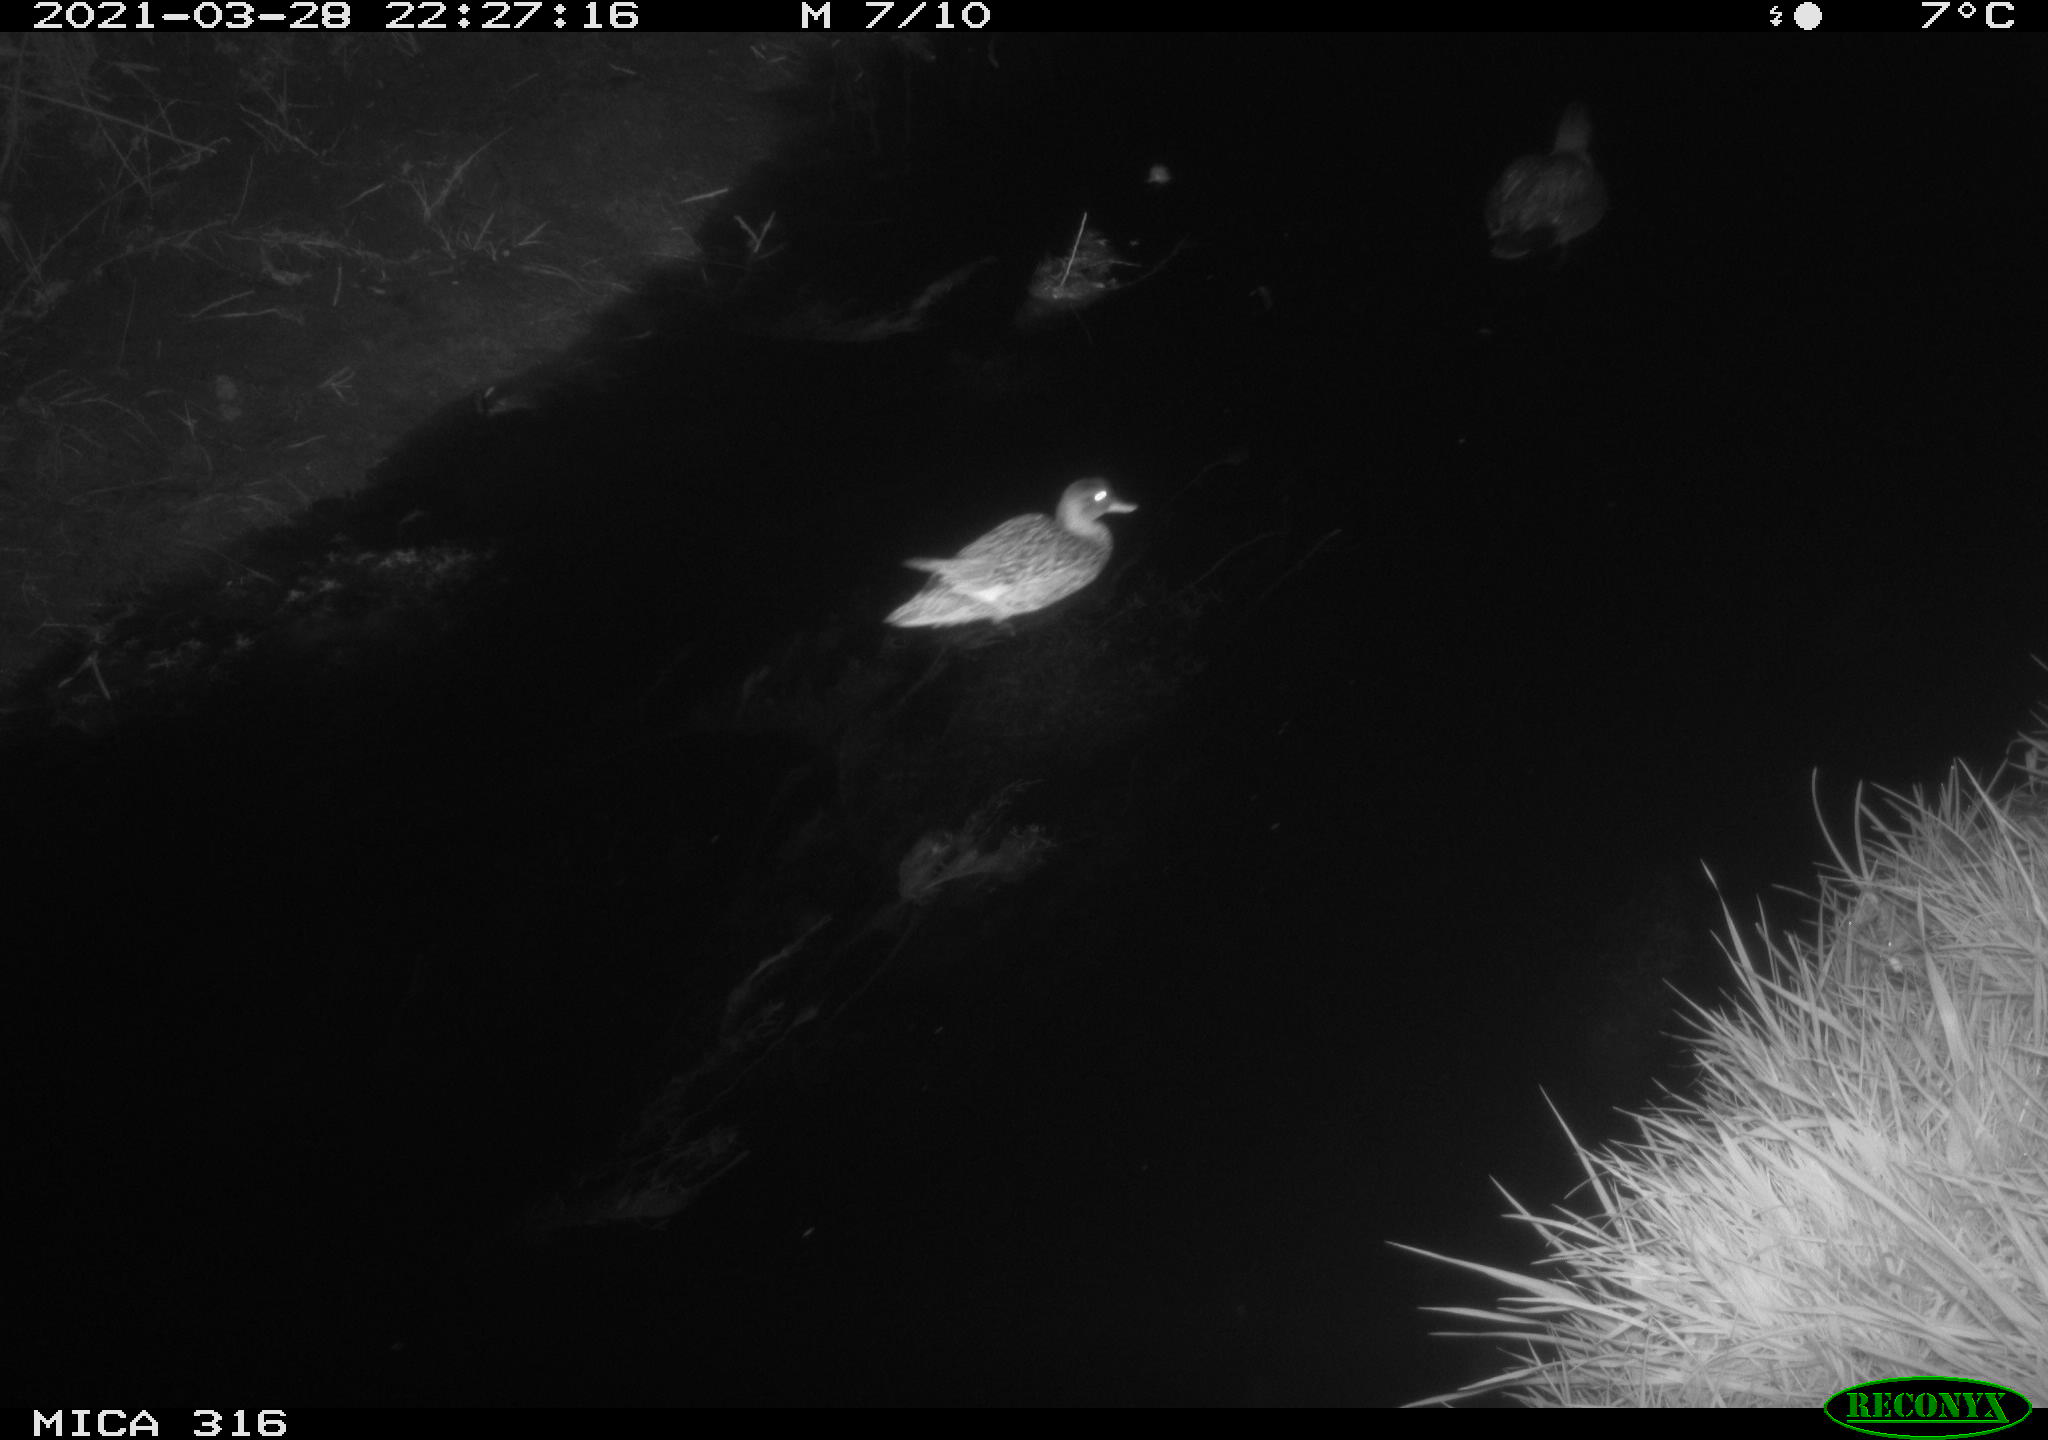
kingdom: Animalia
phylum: Chordata
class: Aves
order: Anseriformes
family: Anatidae
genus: Mareca
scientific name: Mareca strepera
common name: Gadwall
